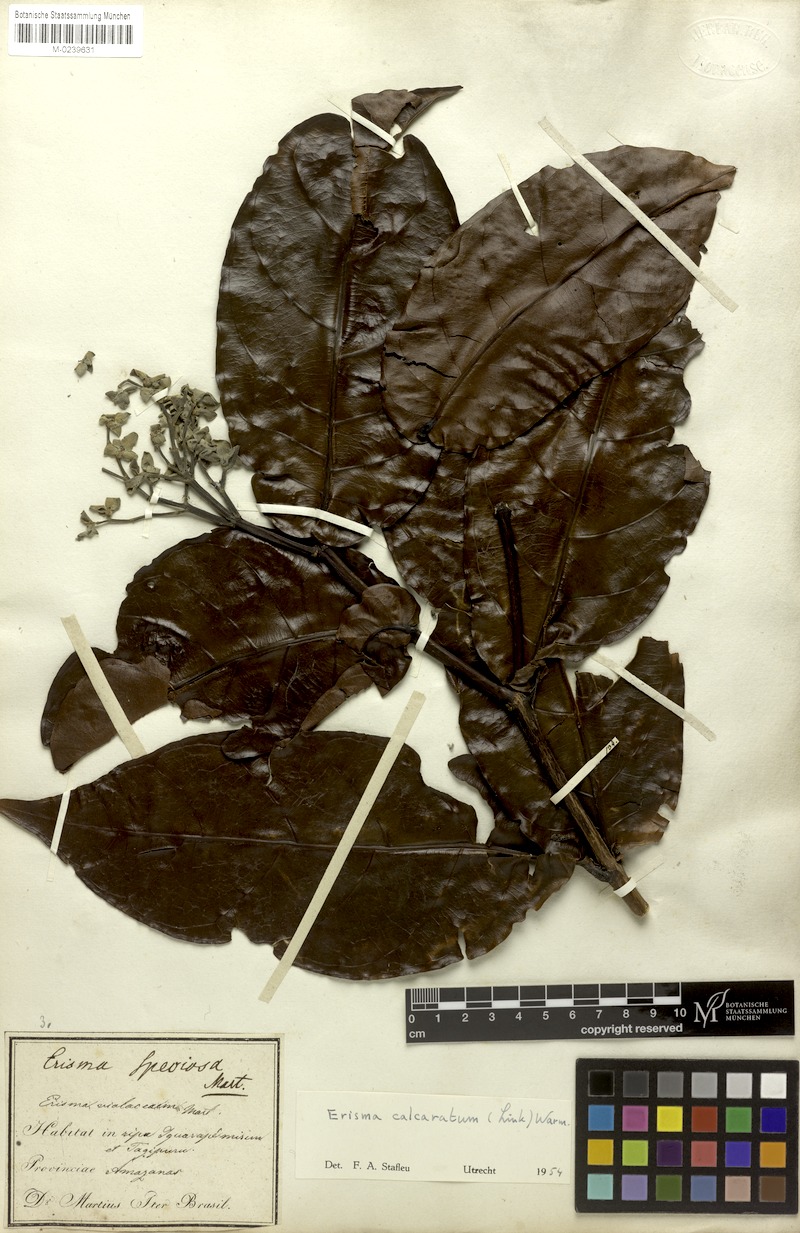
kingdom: Plantae
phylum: Tracheophyta
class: Magnoliopsida
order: Myrtales
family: Vochysiaceae
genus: Erisma
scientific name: Erisma calcaratum
